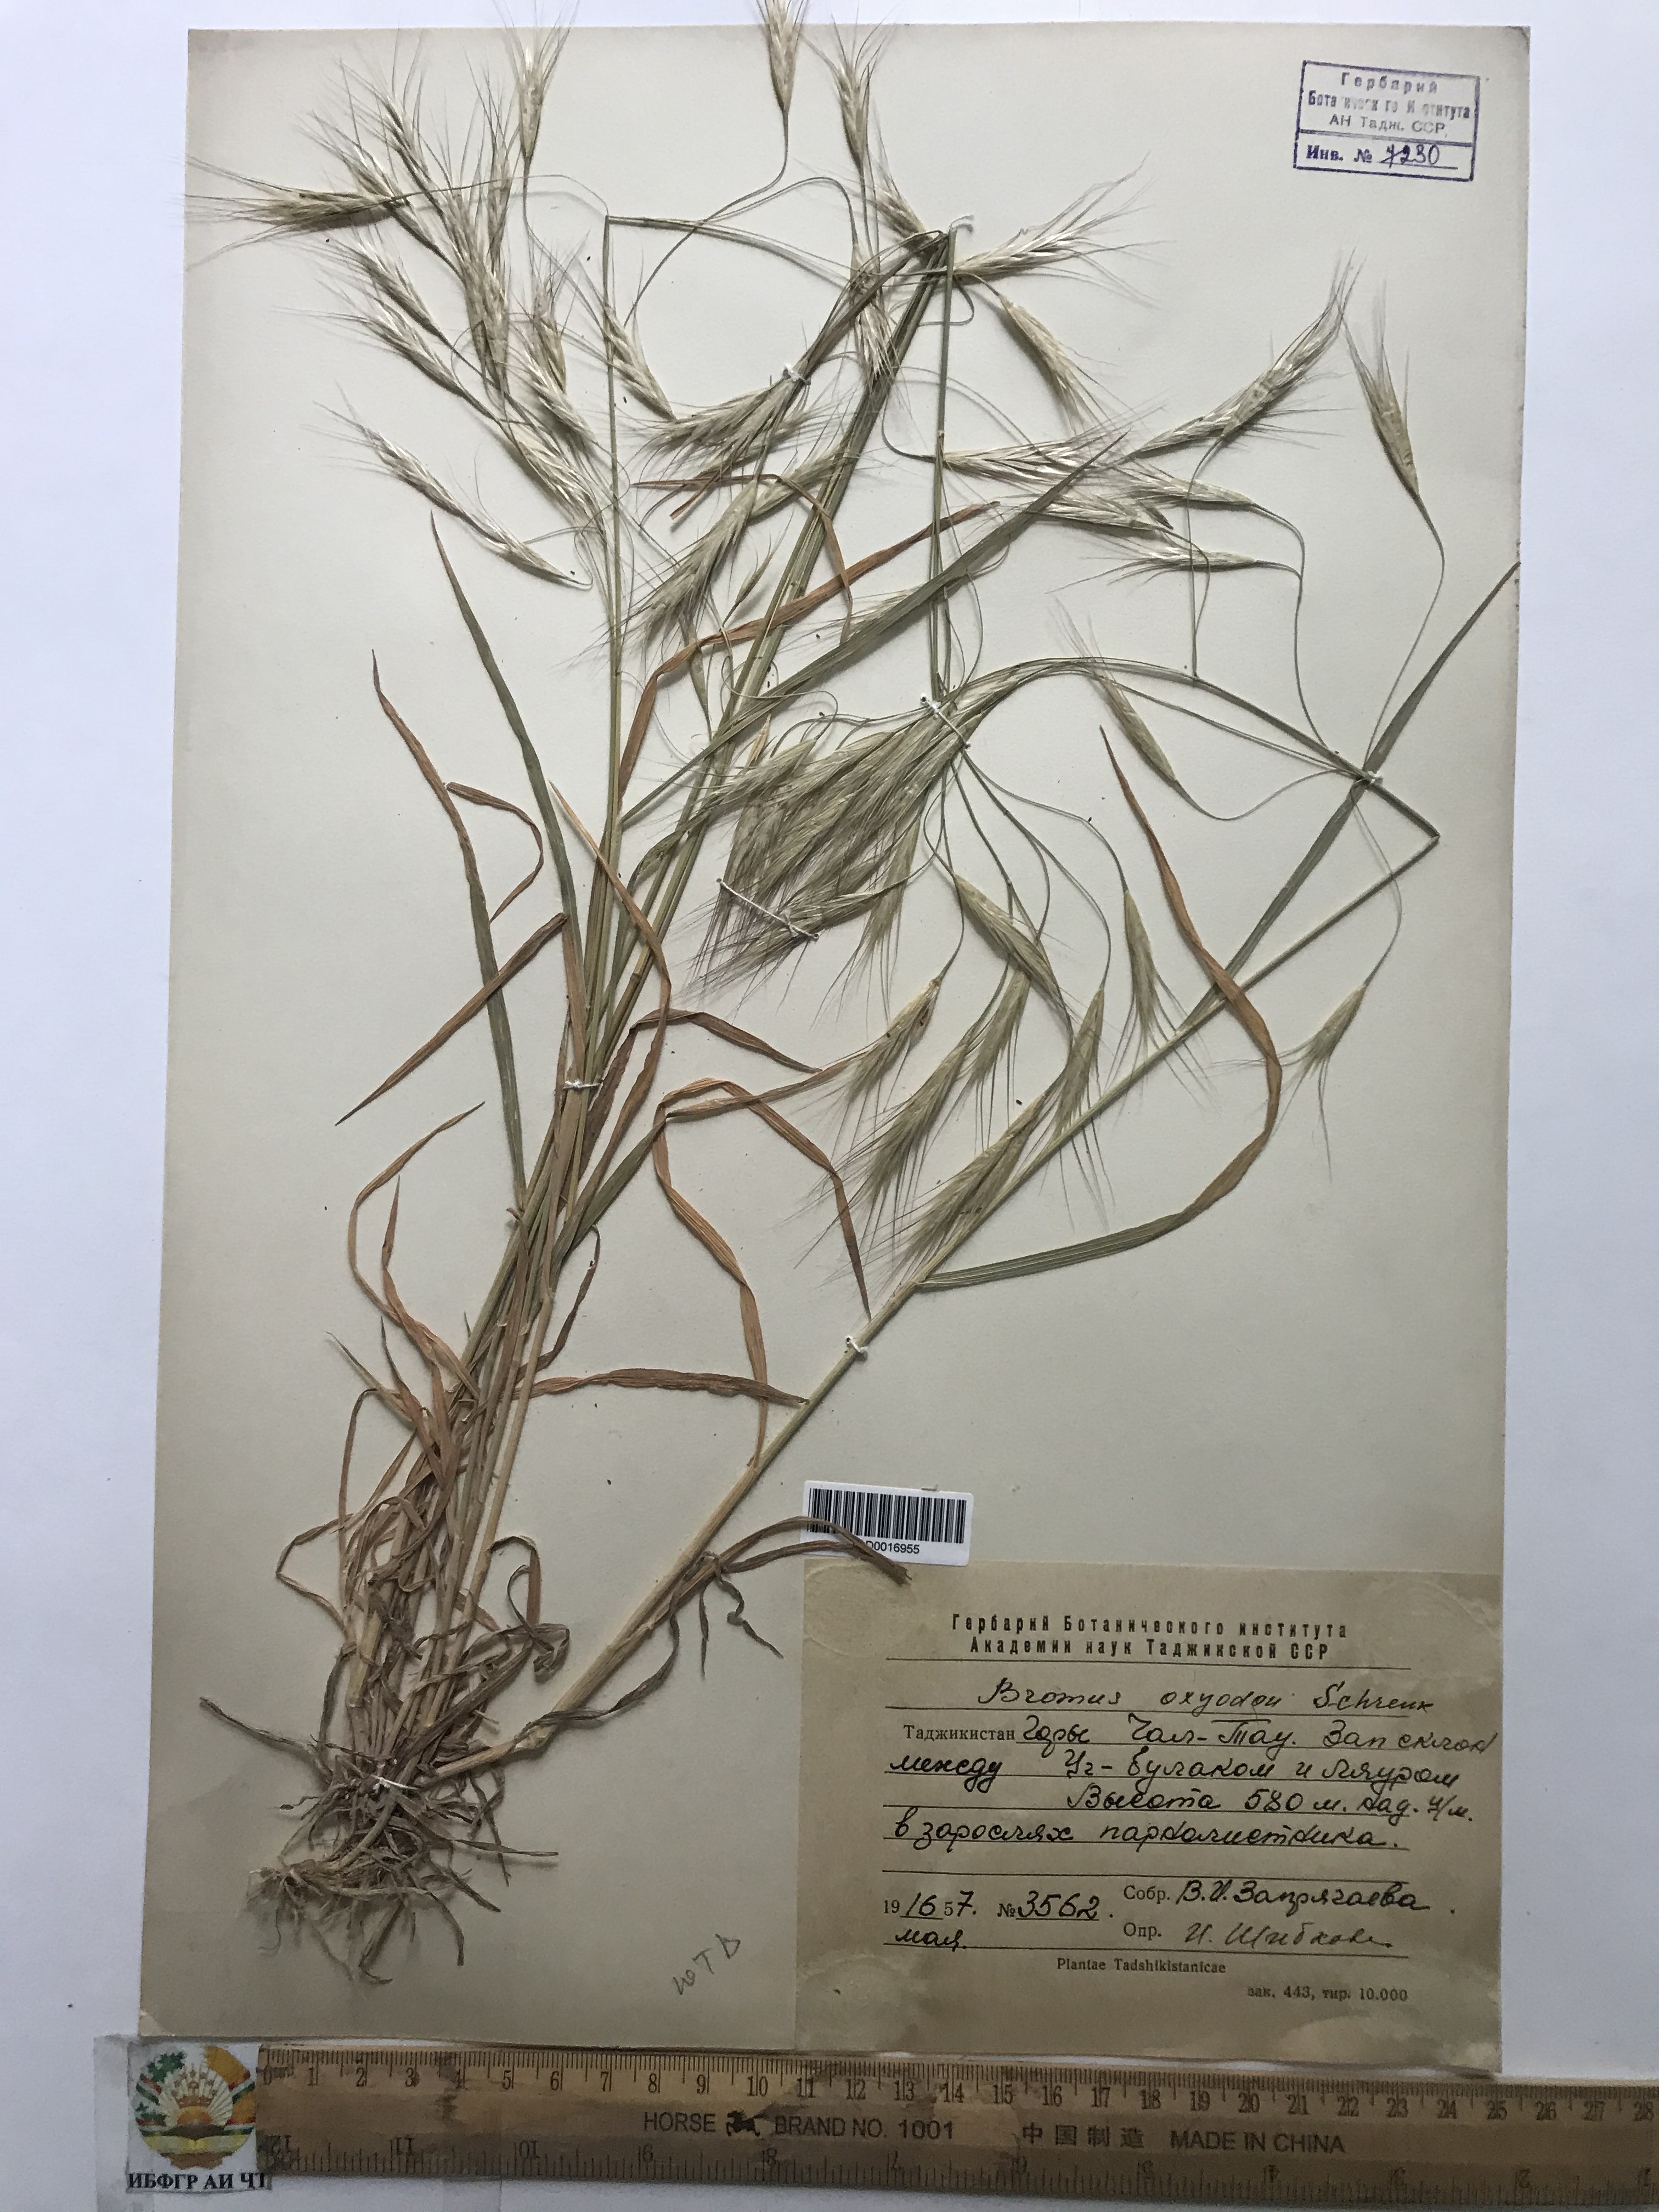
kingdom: Plantae
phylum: Tracheophyta
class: Liliopsida
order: Poales
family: Poaceae
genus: Bromus
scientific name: Bromus oxyodon
